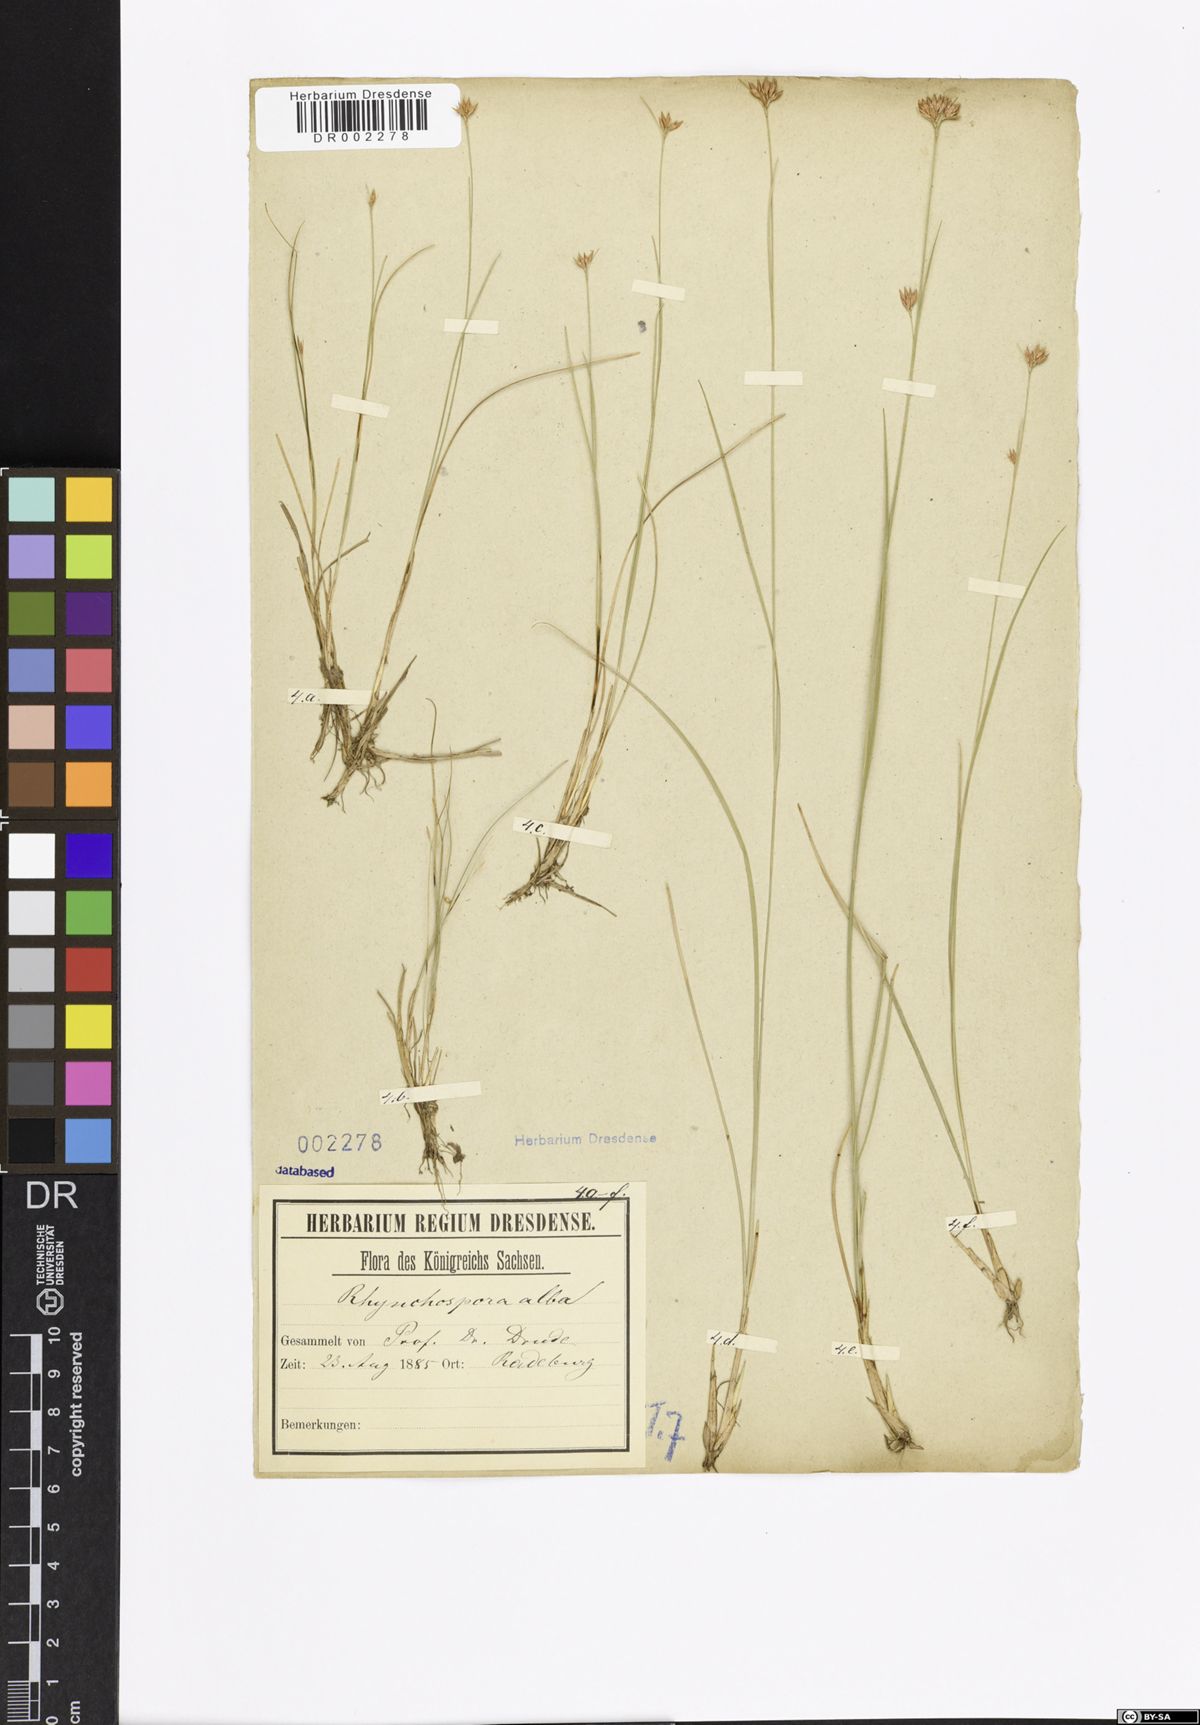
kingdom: Plantae
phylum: Tracheophyta
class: Liliopsida
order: Poales
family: Cyperaceae
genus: Rhynchospora
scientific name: Rhynchospora alba
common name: White beak-sedge
